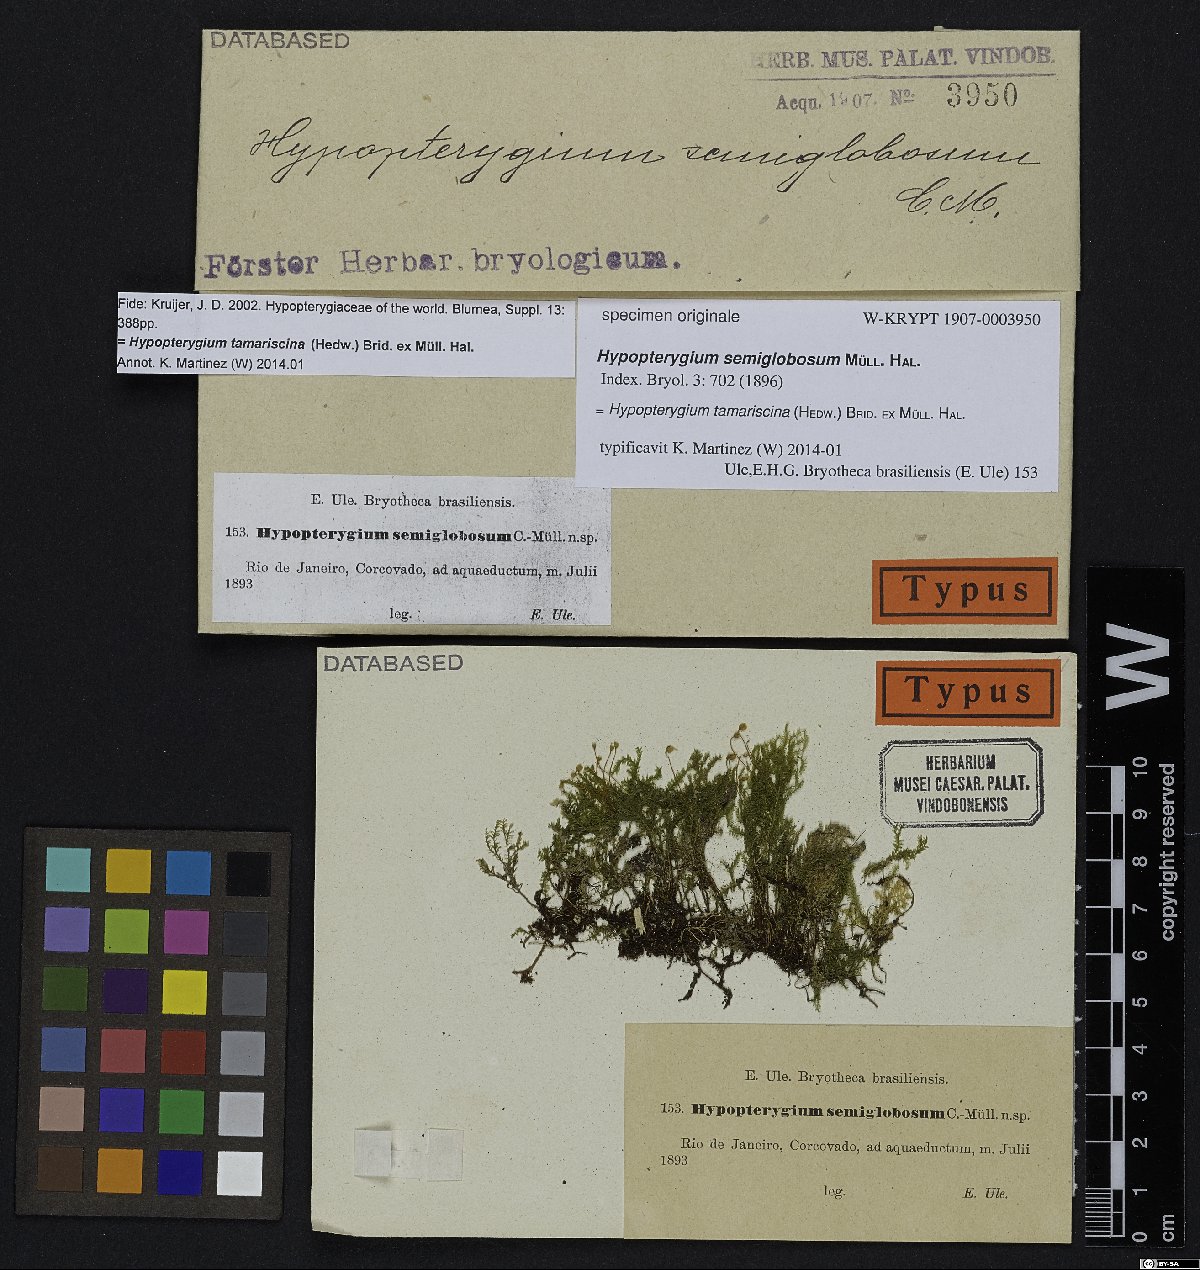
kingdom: Plantae
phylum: Bryophyta
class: Bryopsida
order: Hypopterygiales
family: Hypopterygiaceae
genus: Hypopterygium
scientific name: Hypopterygium
